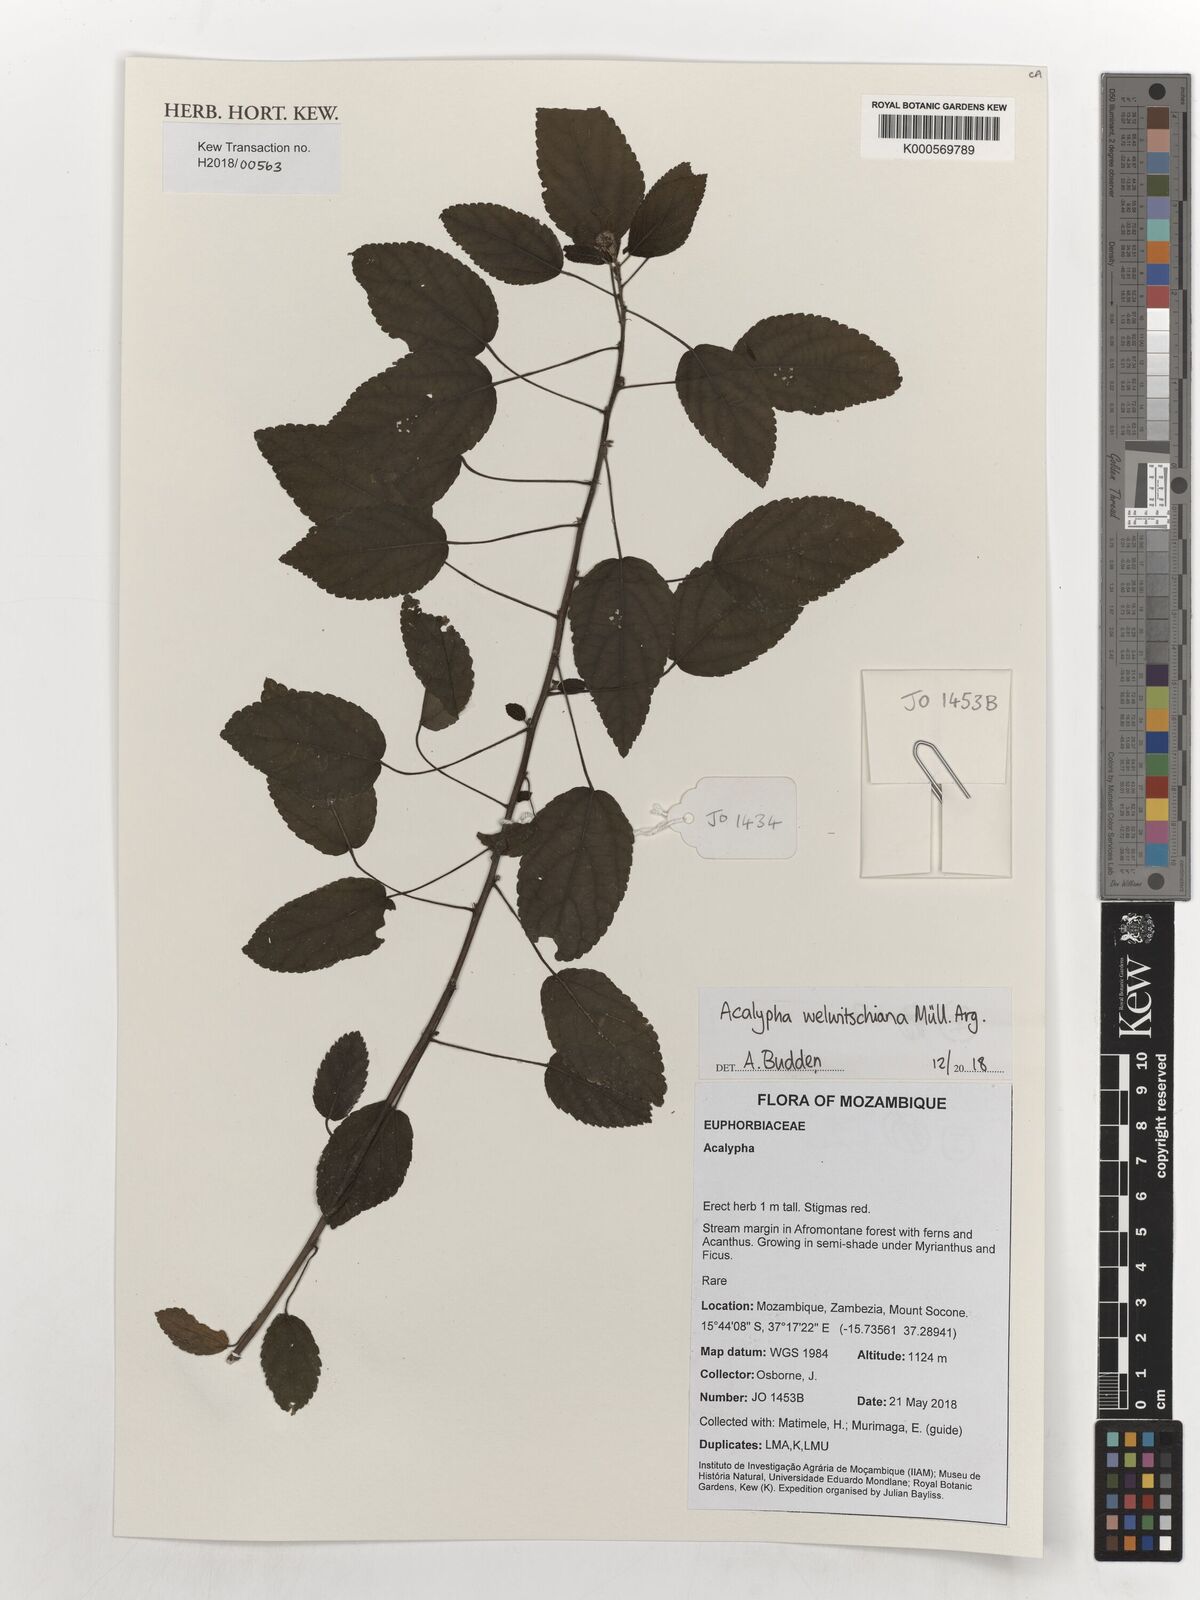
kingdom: Plantae
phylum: Tracheophyta
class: Magnoliopsida
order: Malpighiales
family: Euphorbiaceae
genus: Acalypha
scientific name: Acalypha welwitschiana
